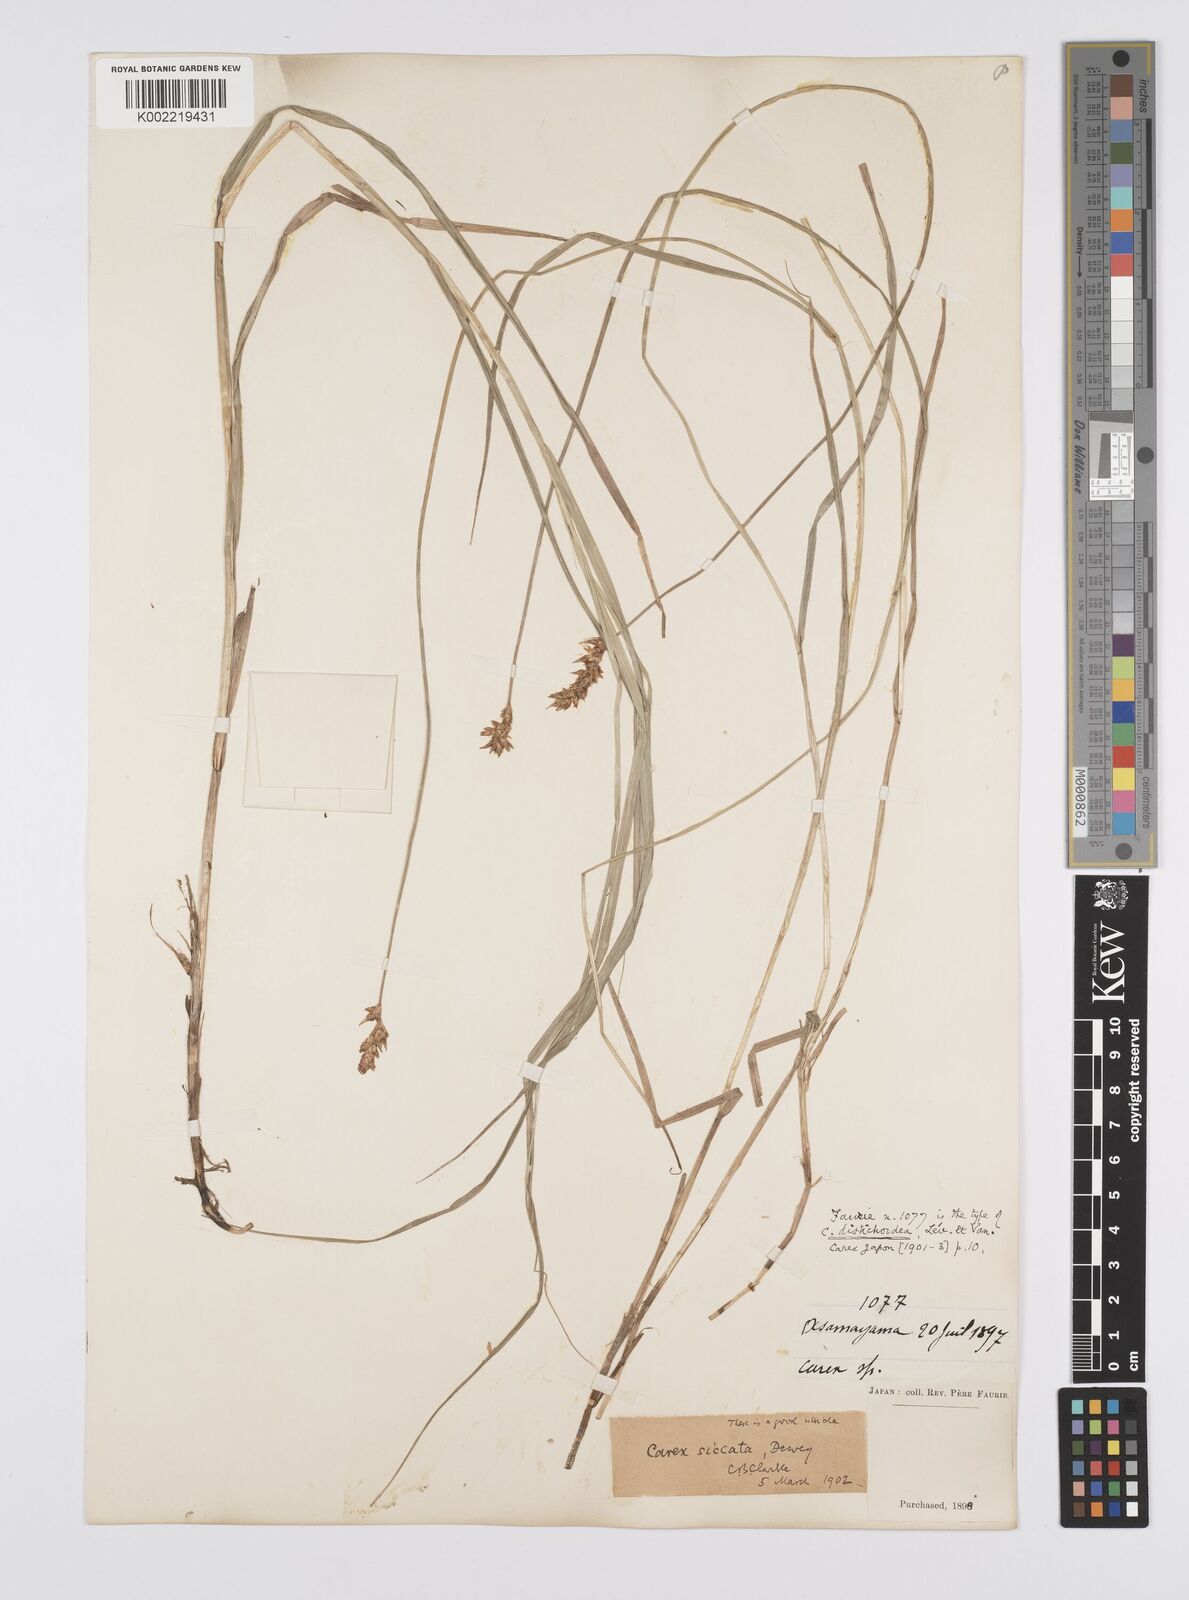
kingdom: Plantae
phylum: Tracheophyta
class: Liliopsida
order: Poales
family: Cyperaceae
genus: Carex
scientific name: Carex siccata
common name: Dry sedge
